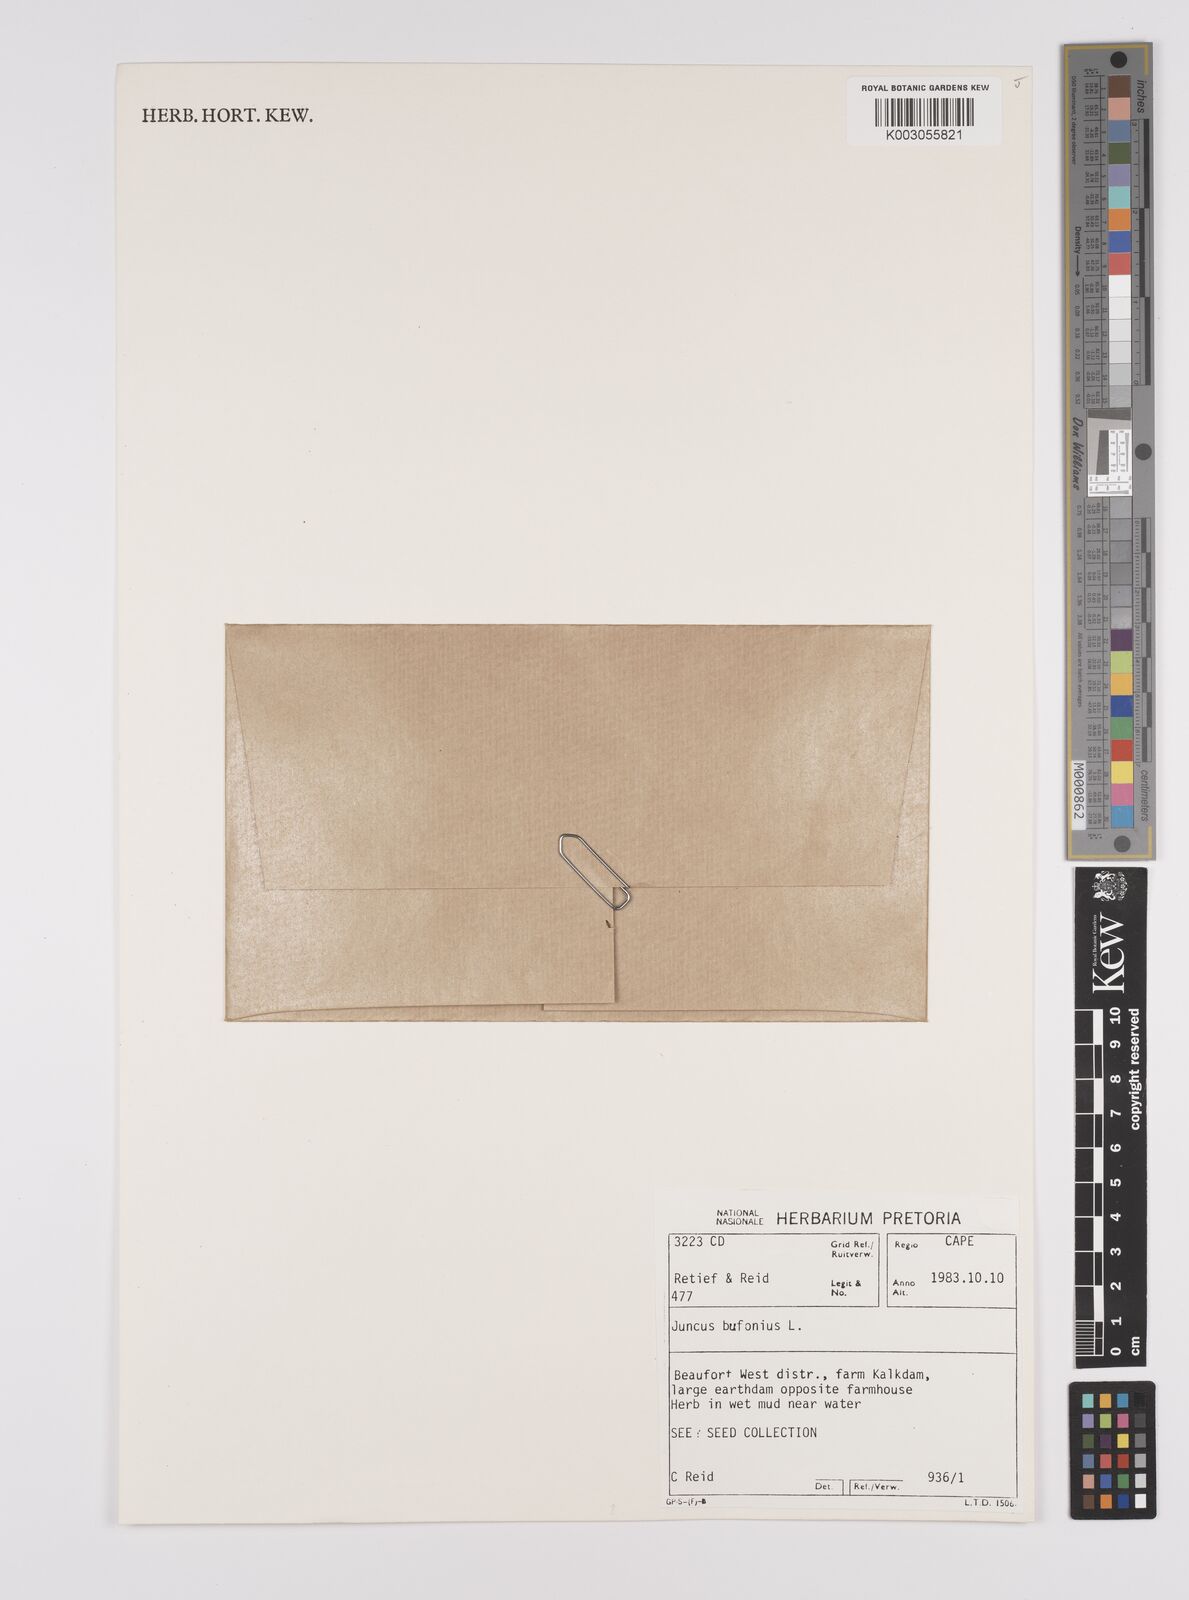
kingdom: Plantae
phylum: Tracheophyta
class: Liliopsida
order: Poales
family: Juncaceae
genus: Juncus
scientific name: Juncus bufonius
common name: Toad rush
